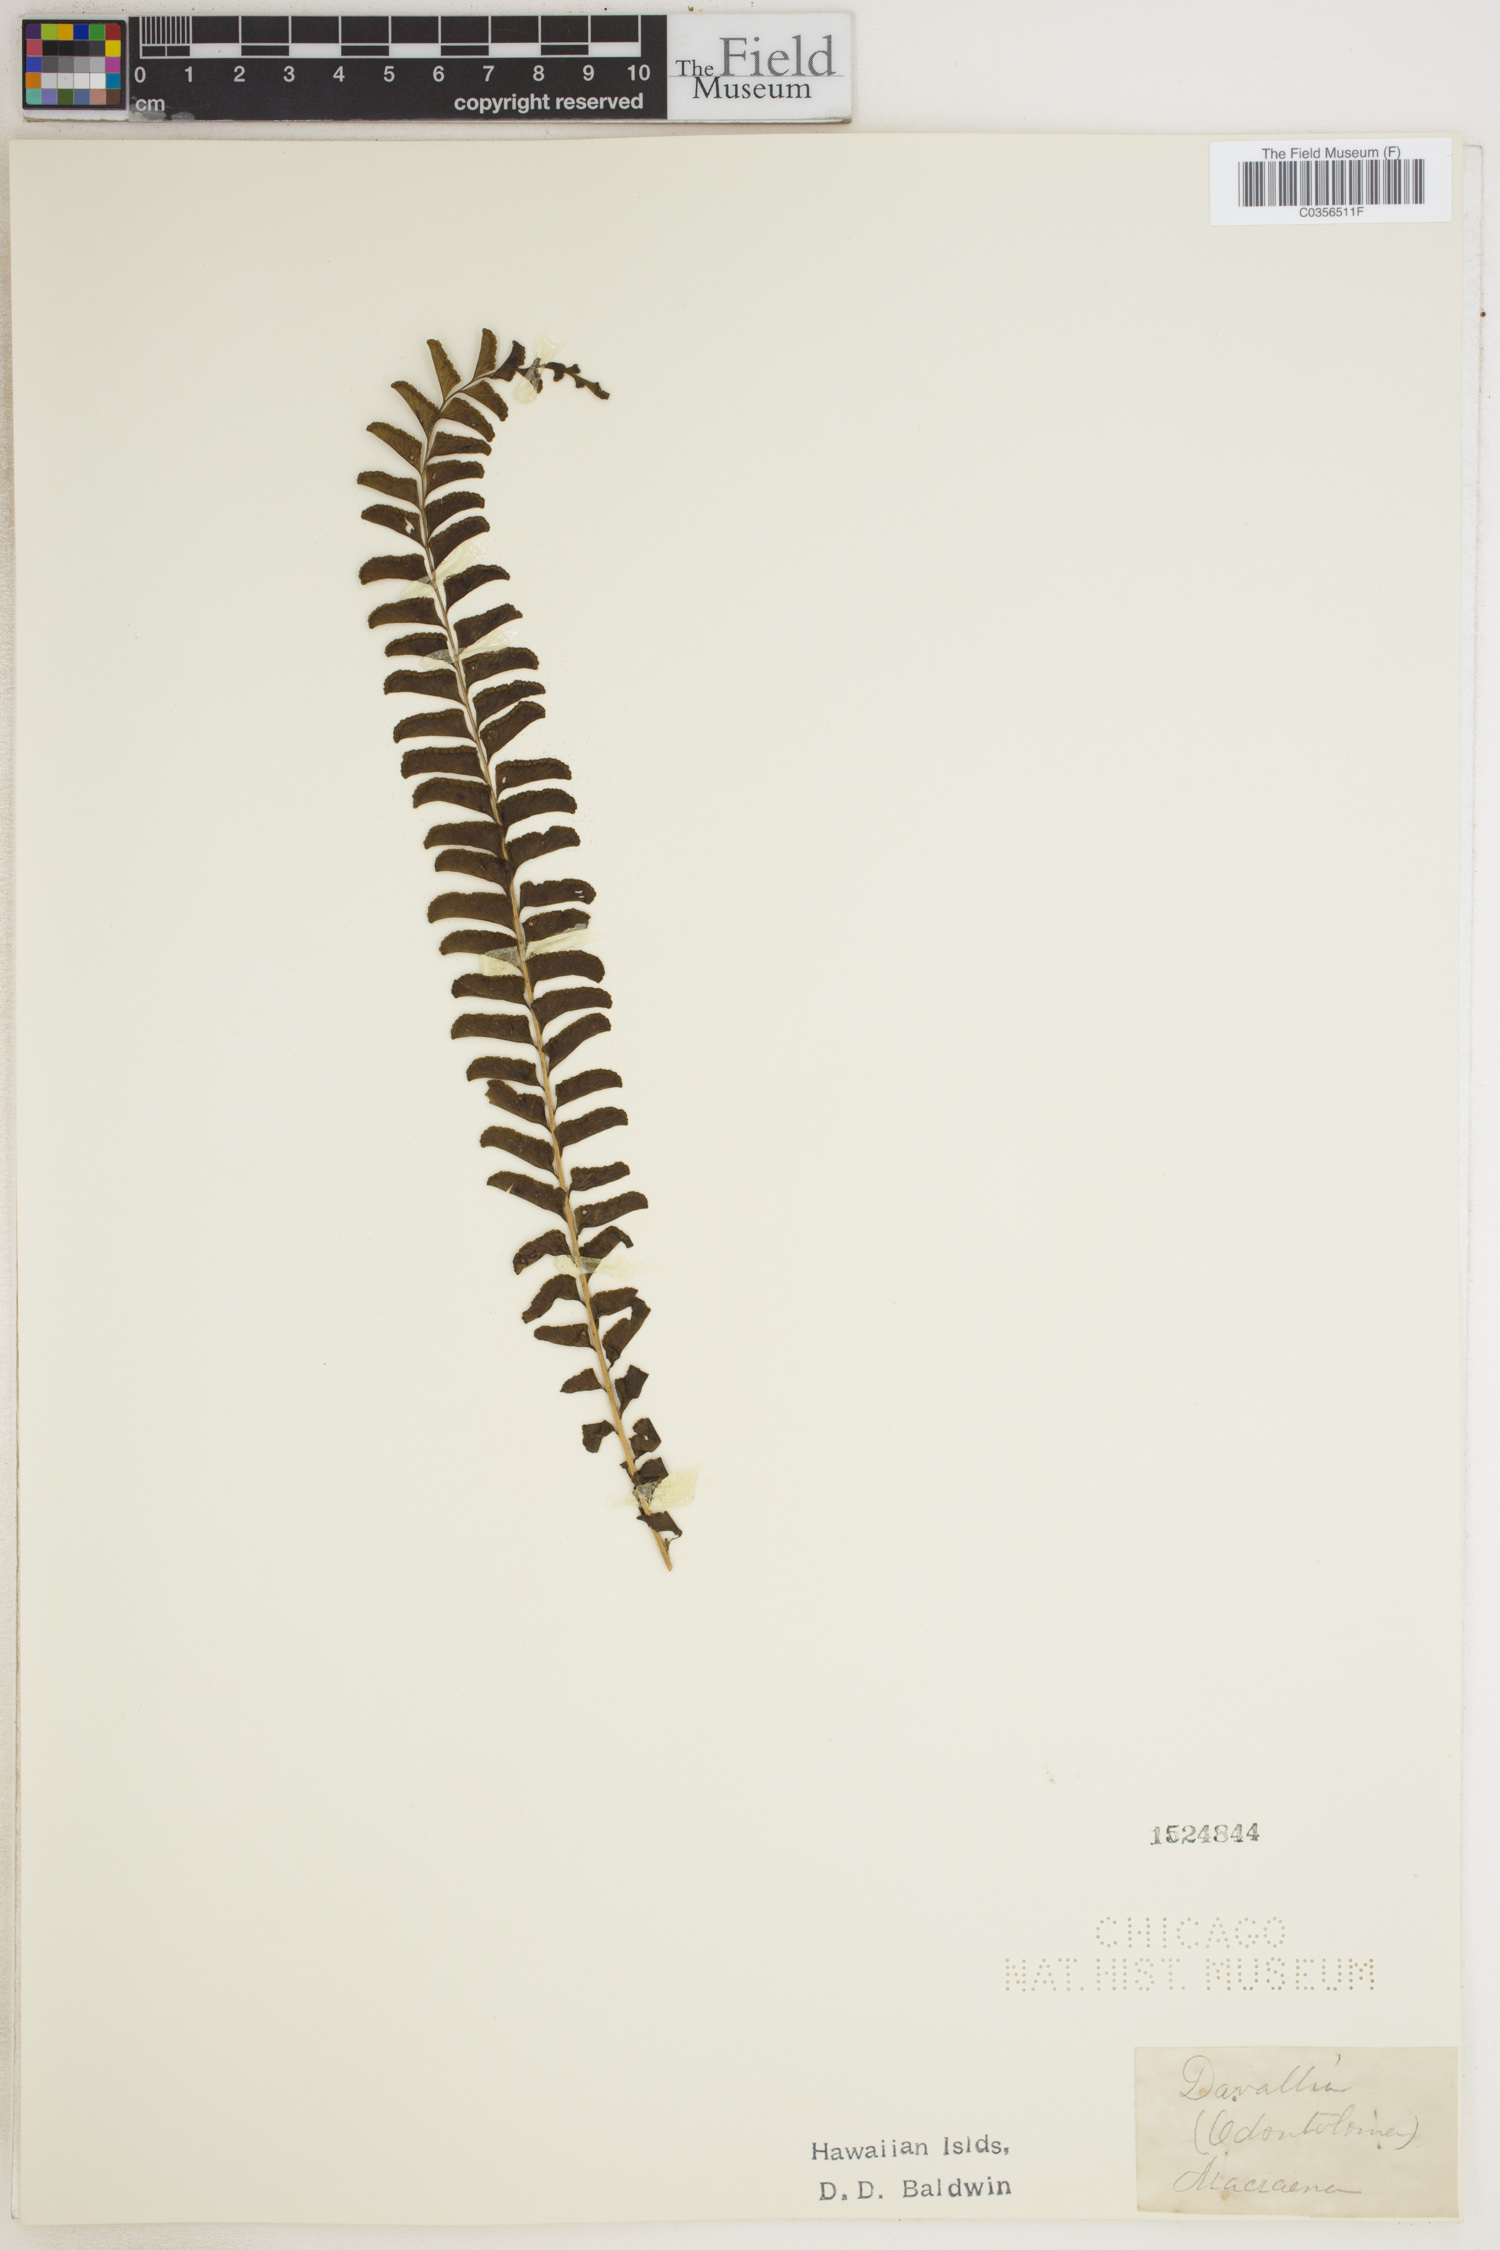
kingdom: Plantae
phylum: Tracheophyta
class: Polypodiopsida
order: Polypodiales
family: Davalliaceae
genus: Davallia
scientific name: Davallia
